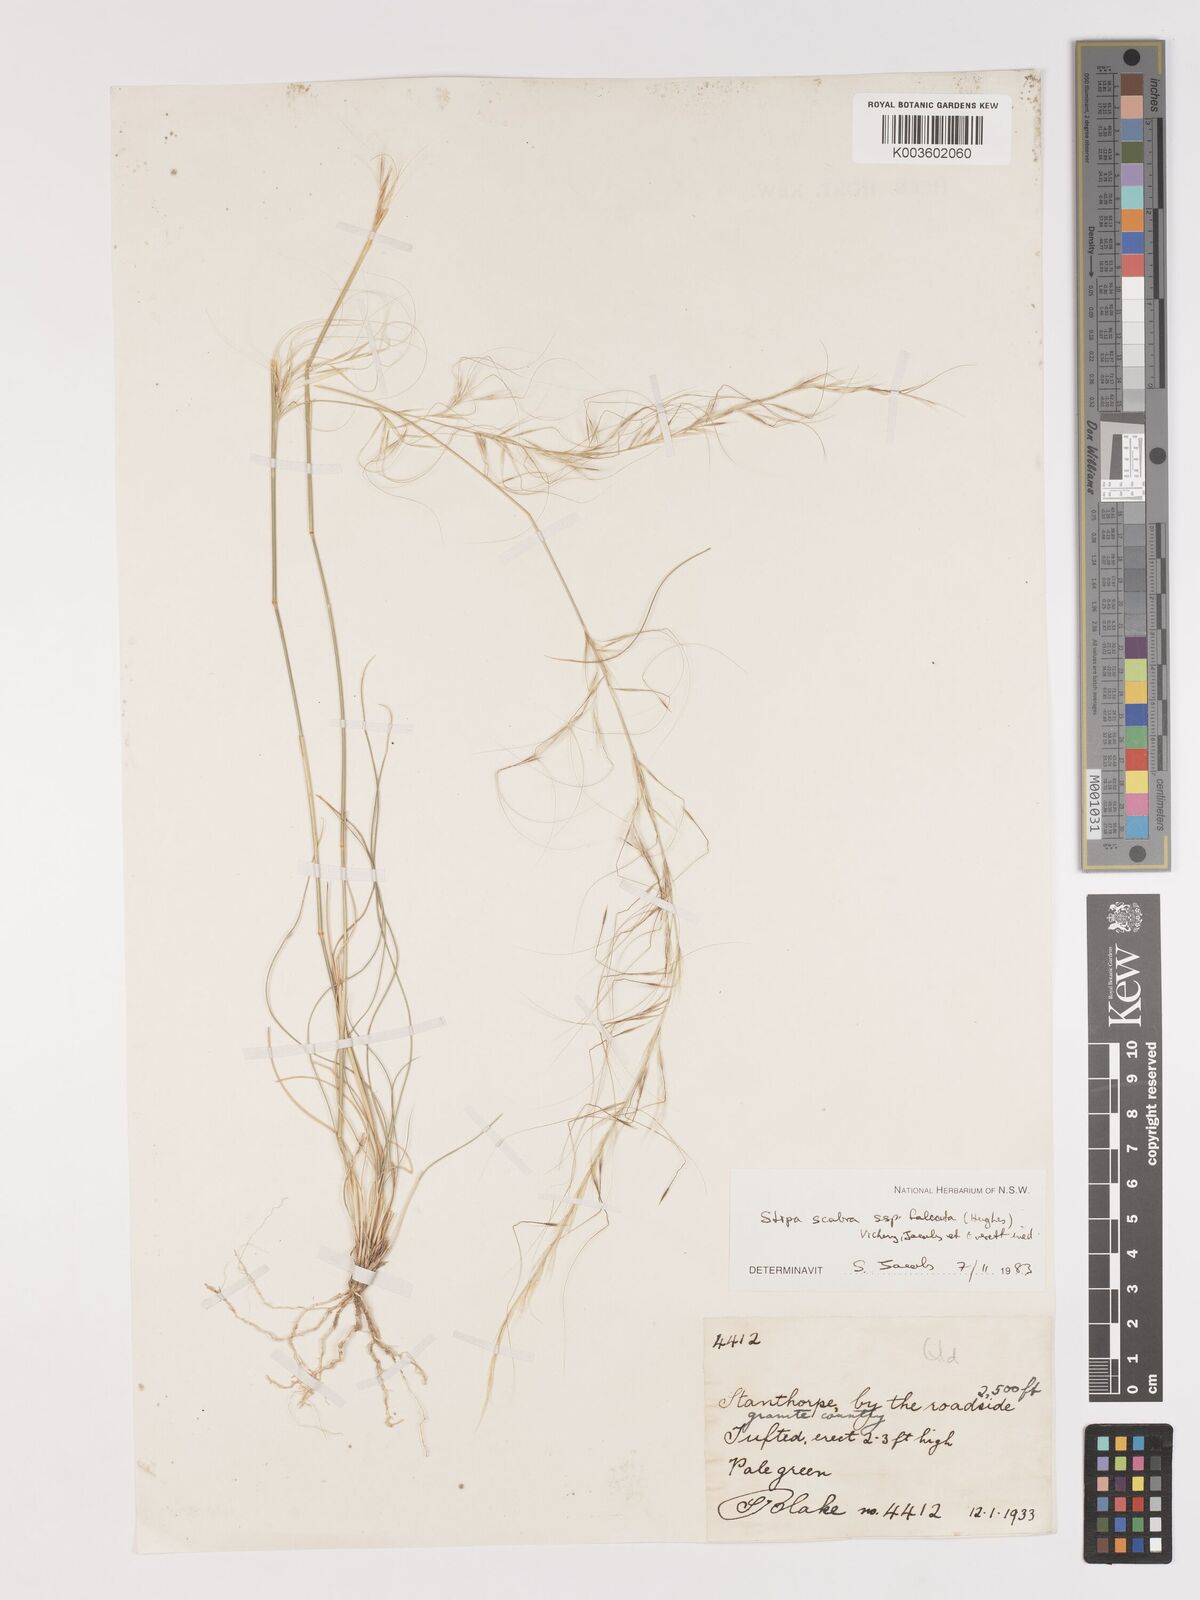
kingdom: Plantae
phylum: Tracheophyta
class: Liliopsida
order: Poales
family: Poaceae
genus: Austrostipa
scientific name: Austrostipa scabra
